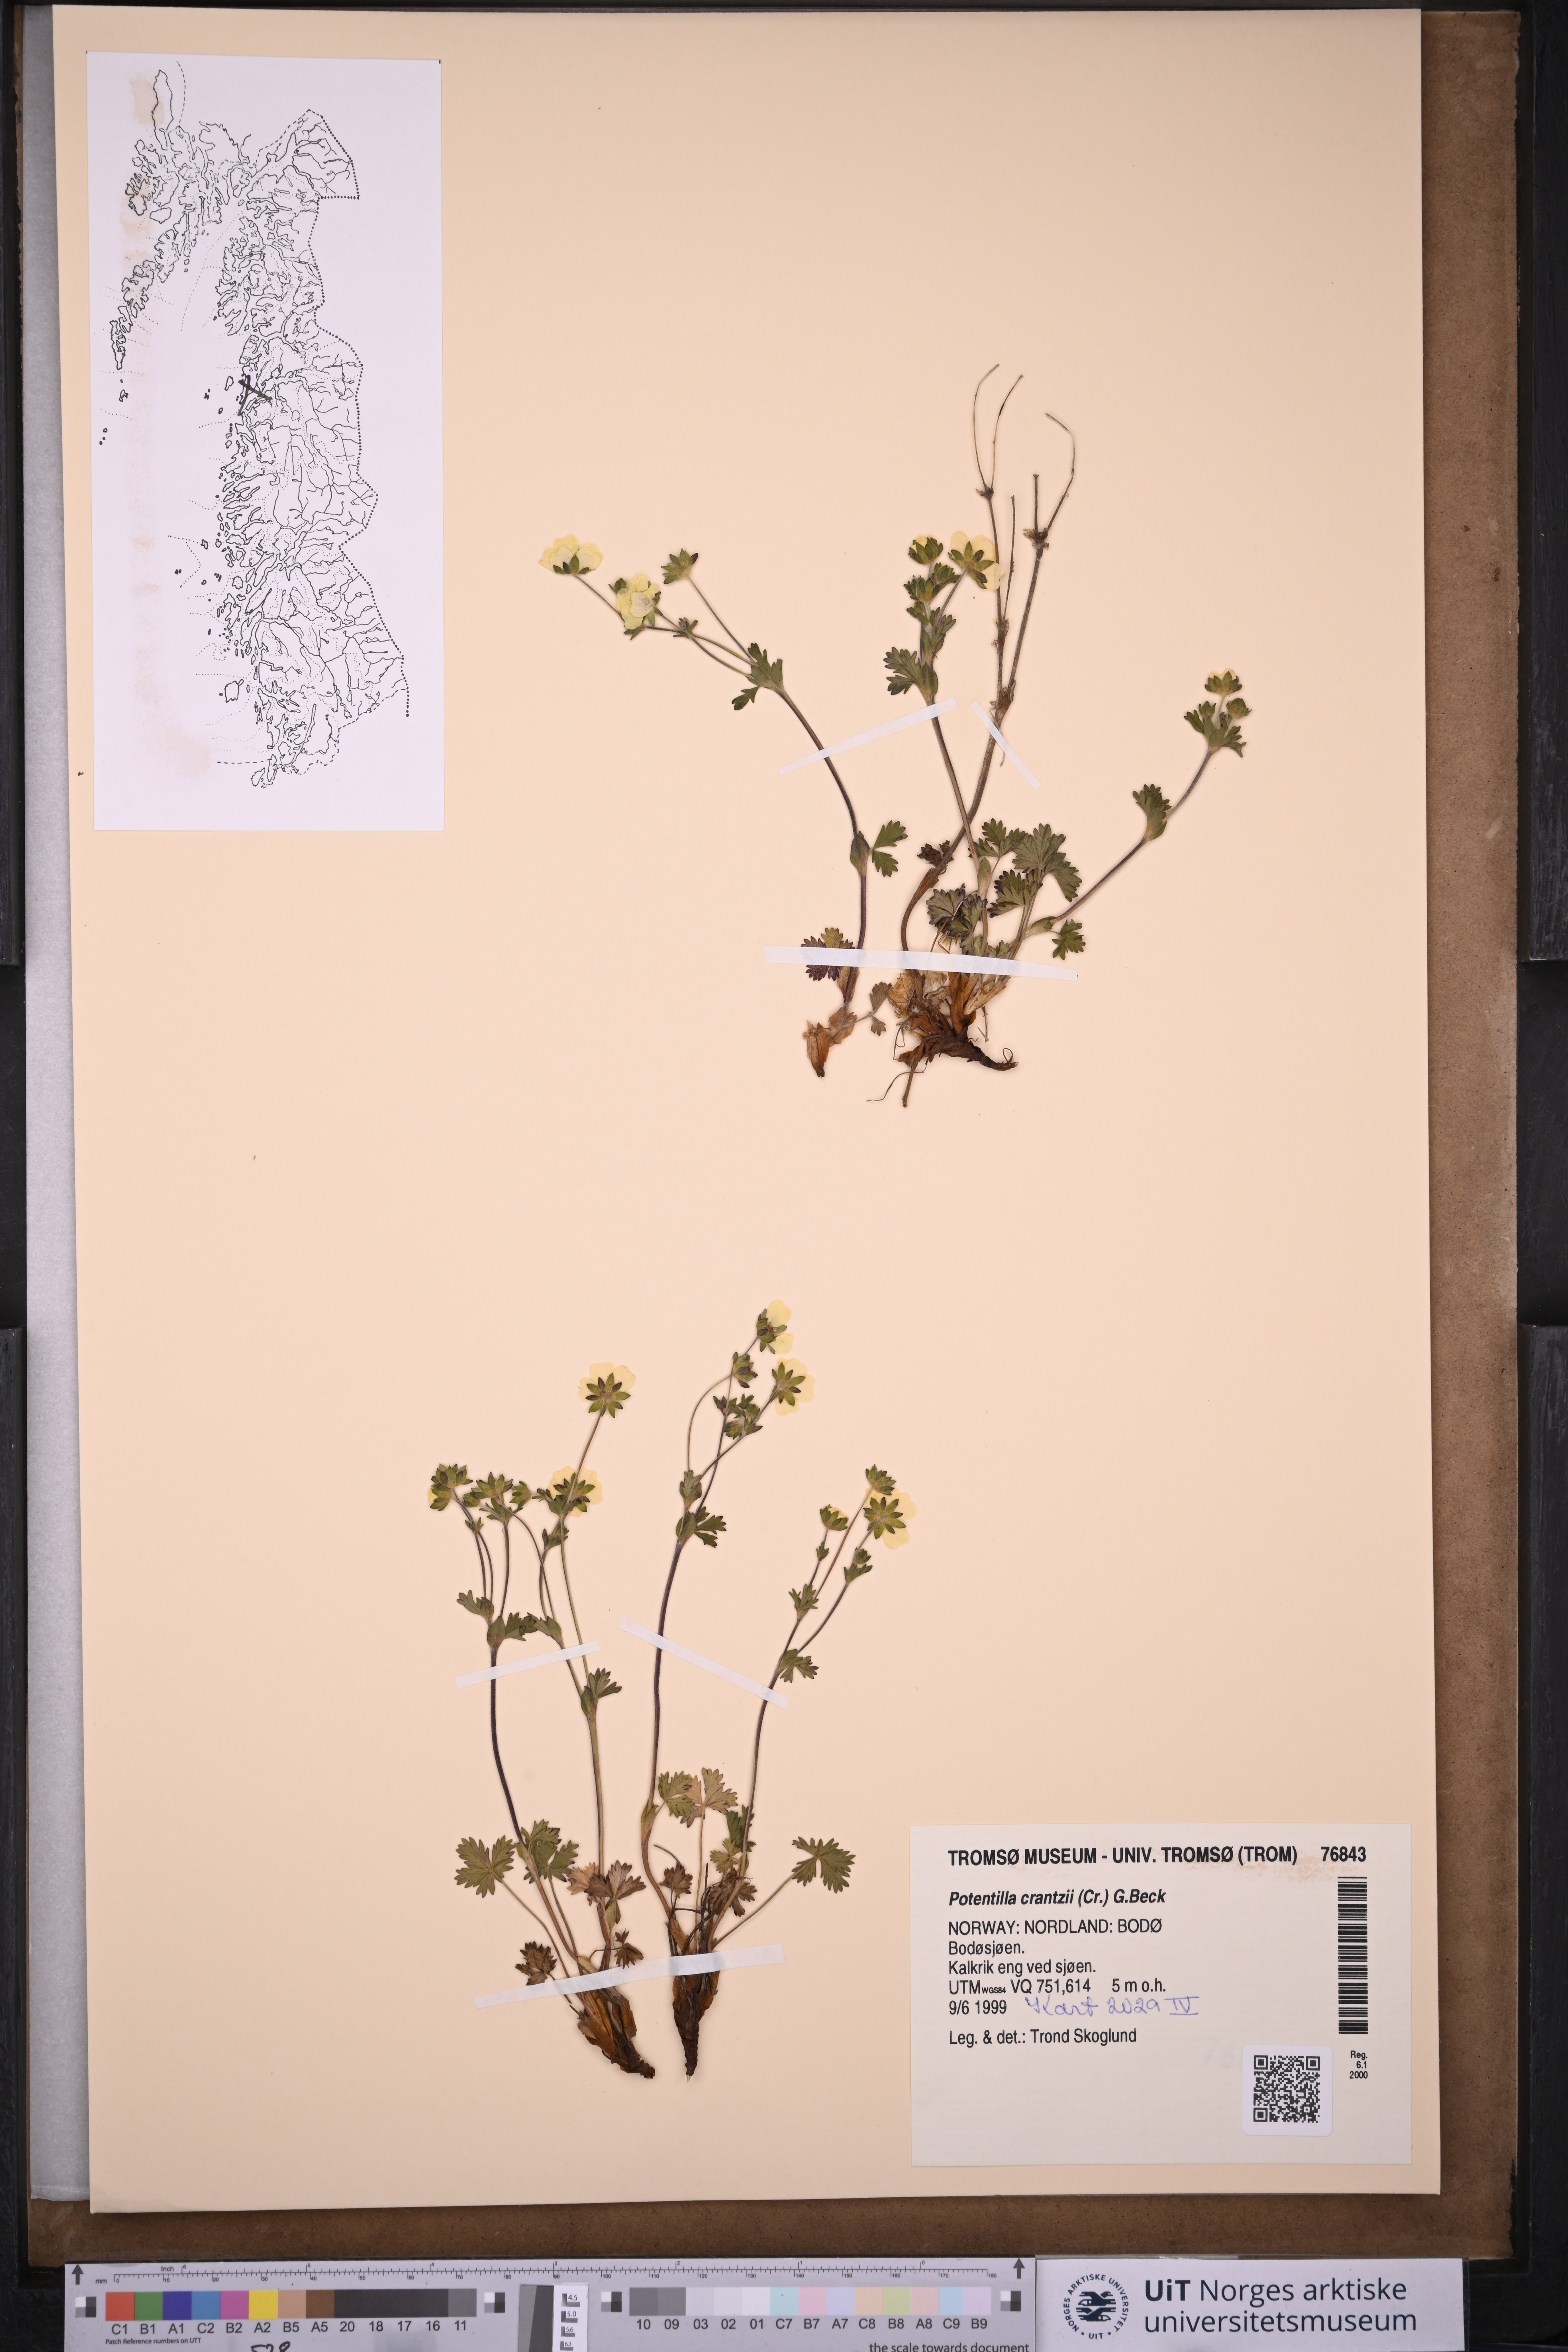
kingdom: Plantae
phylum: Tracheophyta
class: Magnoliopsida
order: Rosales
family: Rosaceae
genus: Potentilla
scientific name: Potentilla crantzii
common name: Alpine cinquefoil
